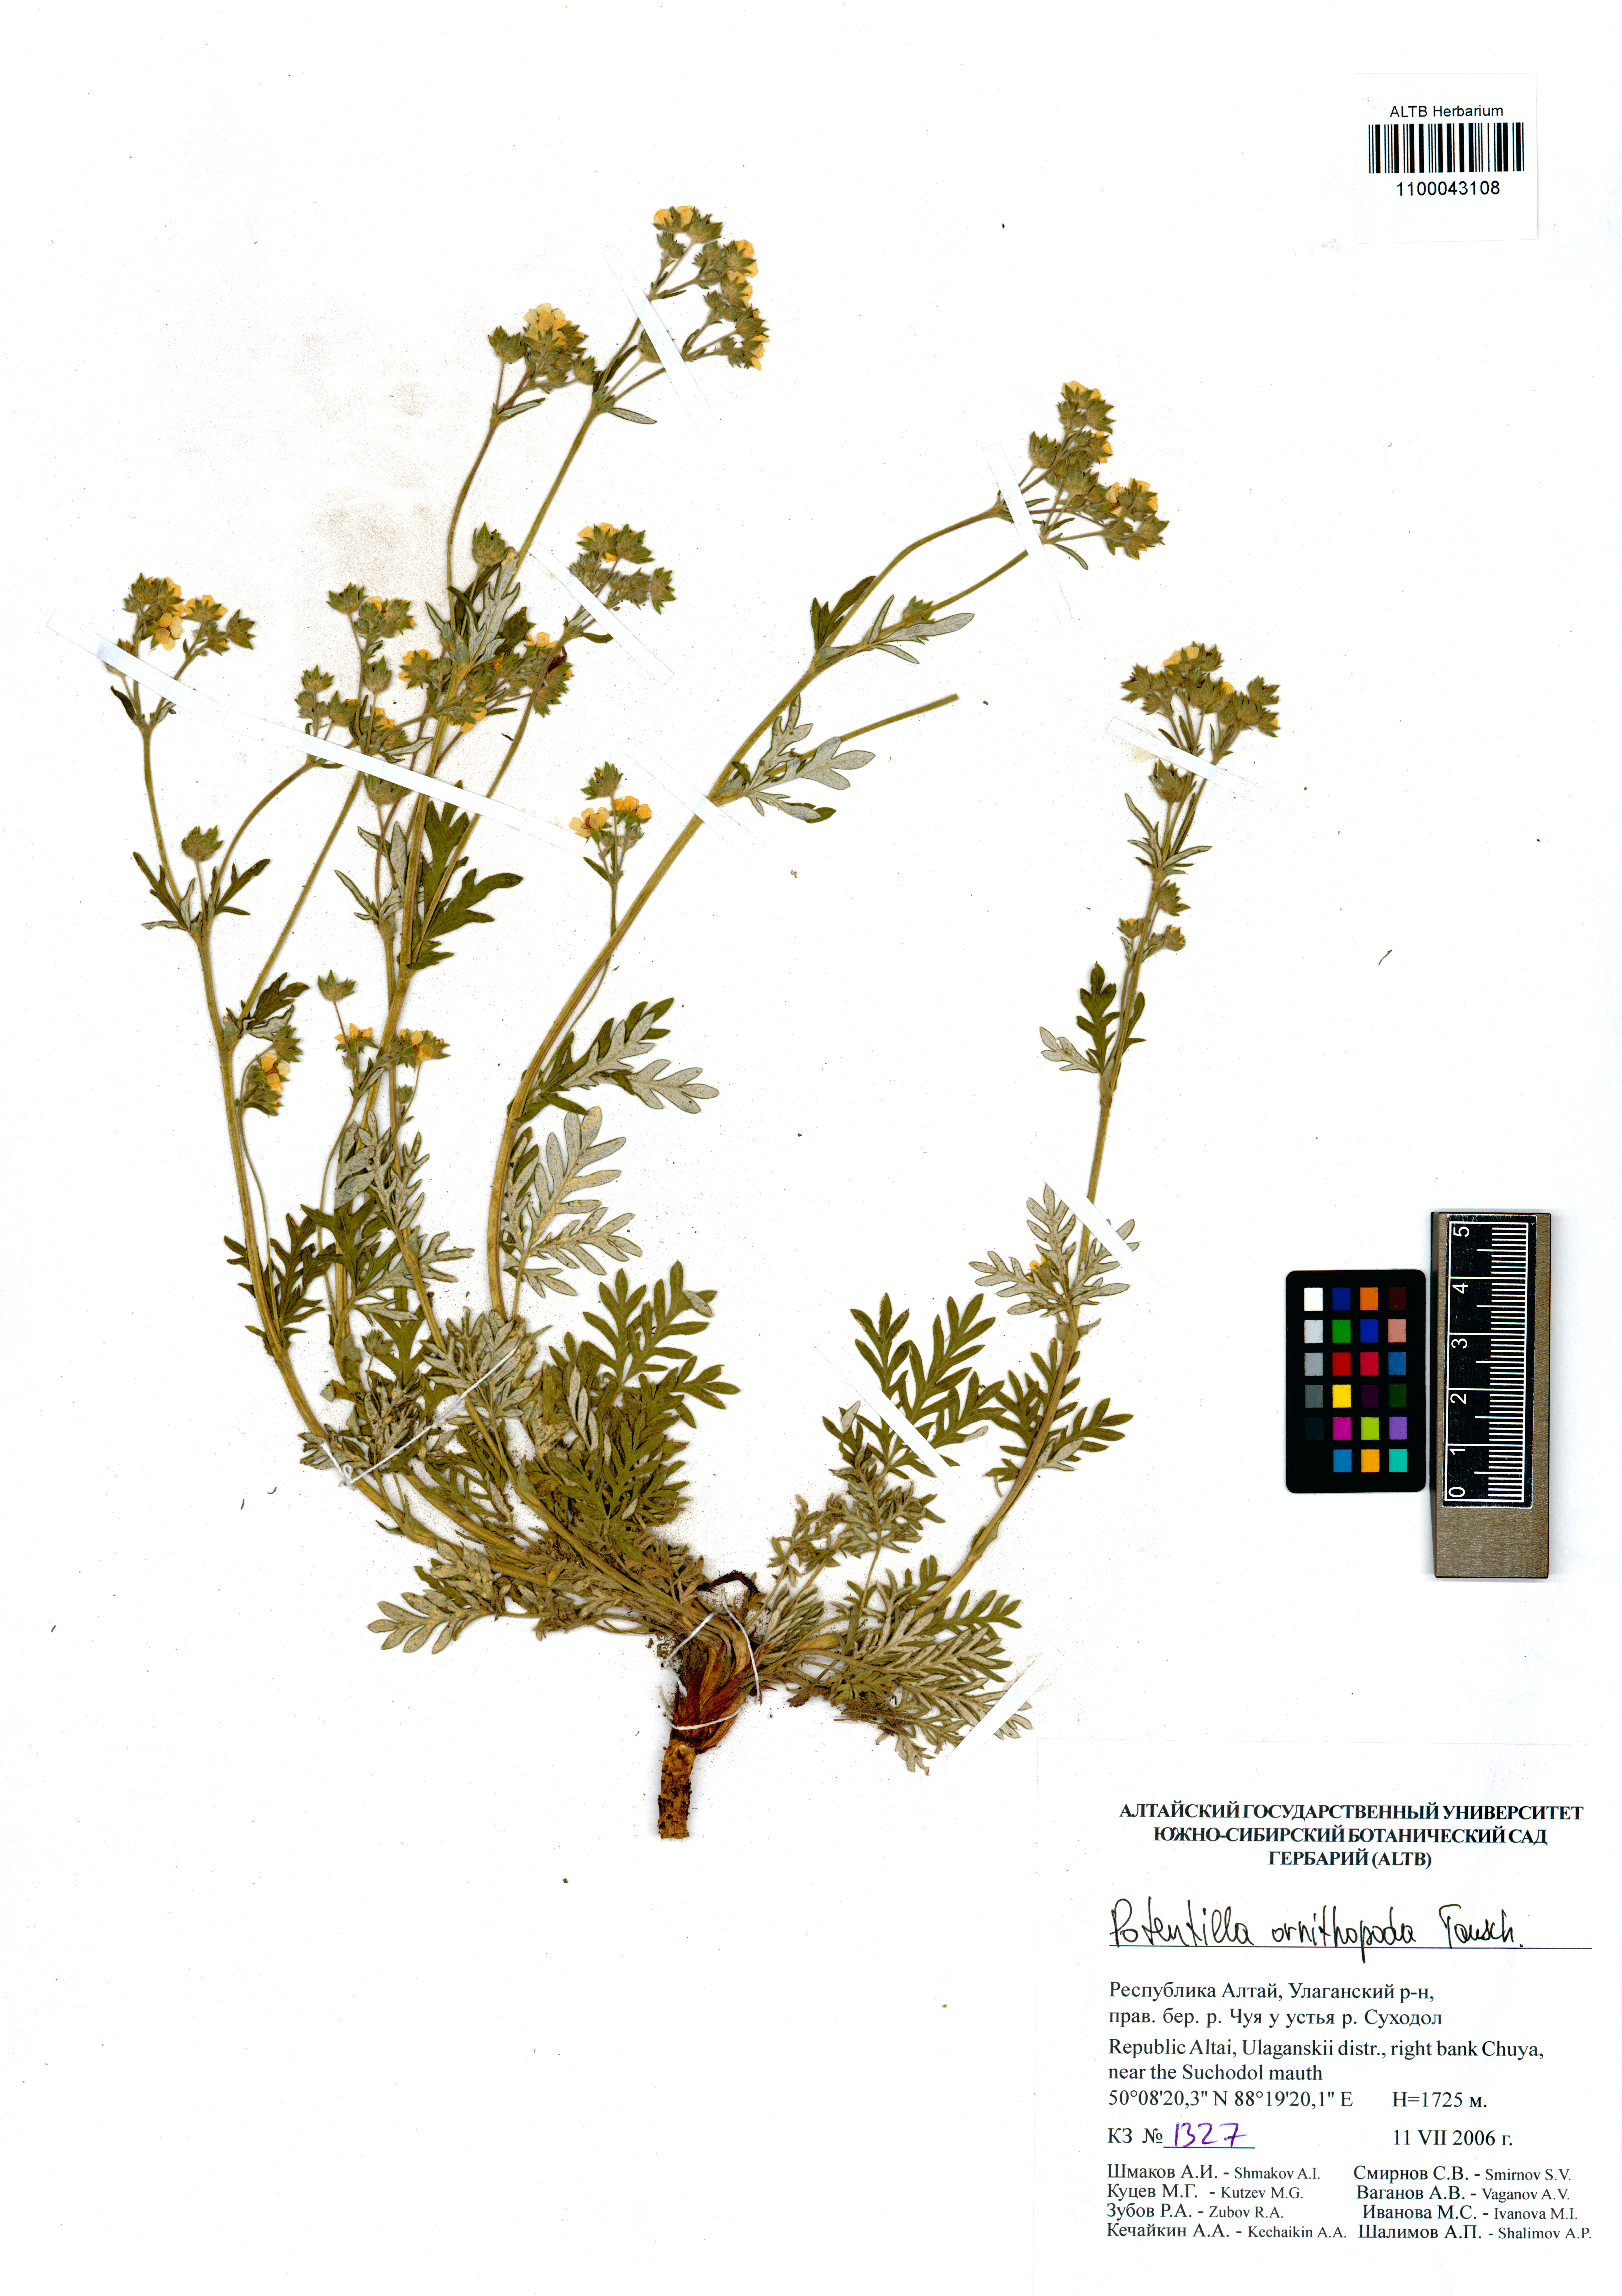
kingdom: Plantae
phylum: Tracheophyta
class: Magnoliopsida
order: Rosales
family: Rosaceae
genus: Potentilla
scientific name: Potentilla ornithopoda
